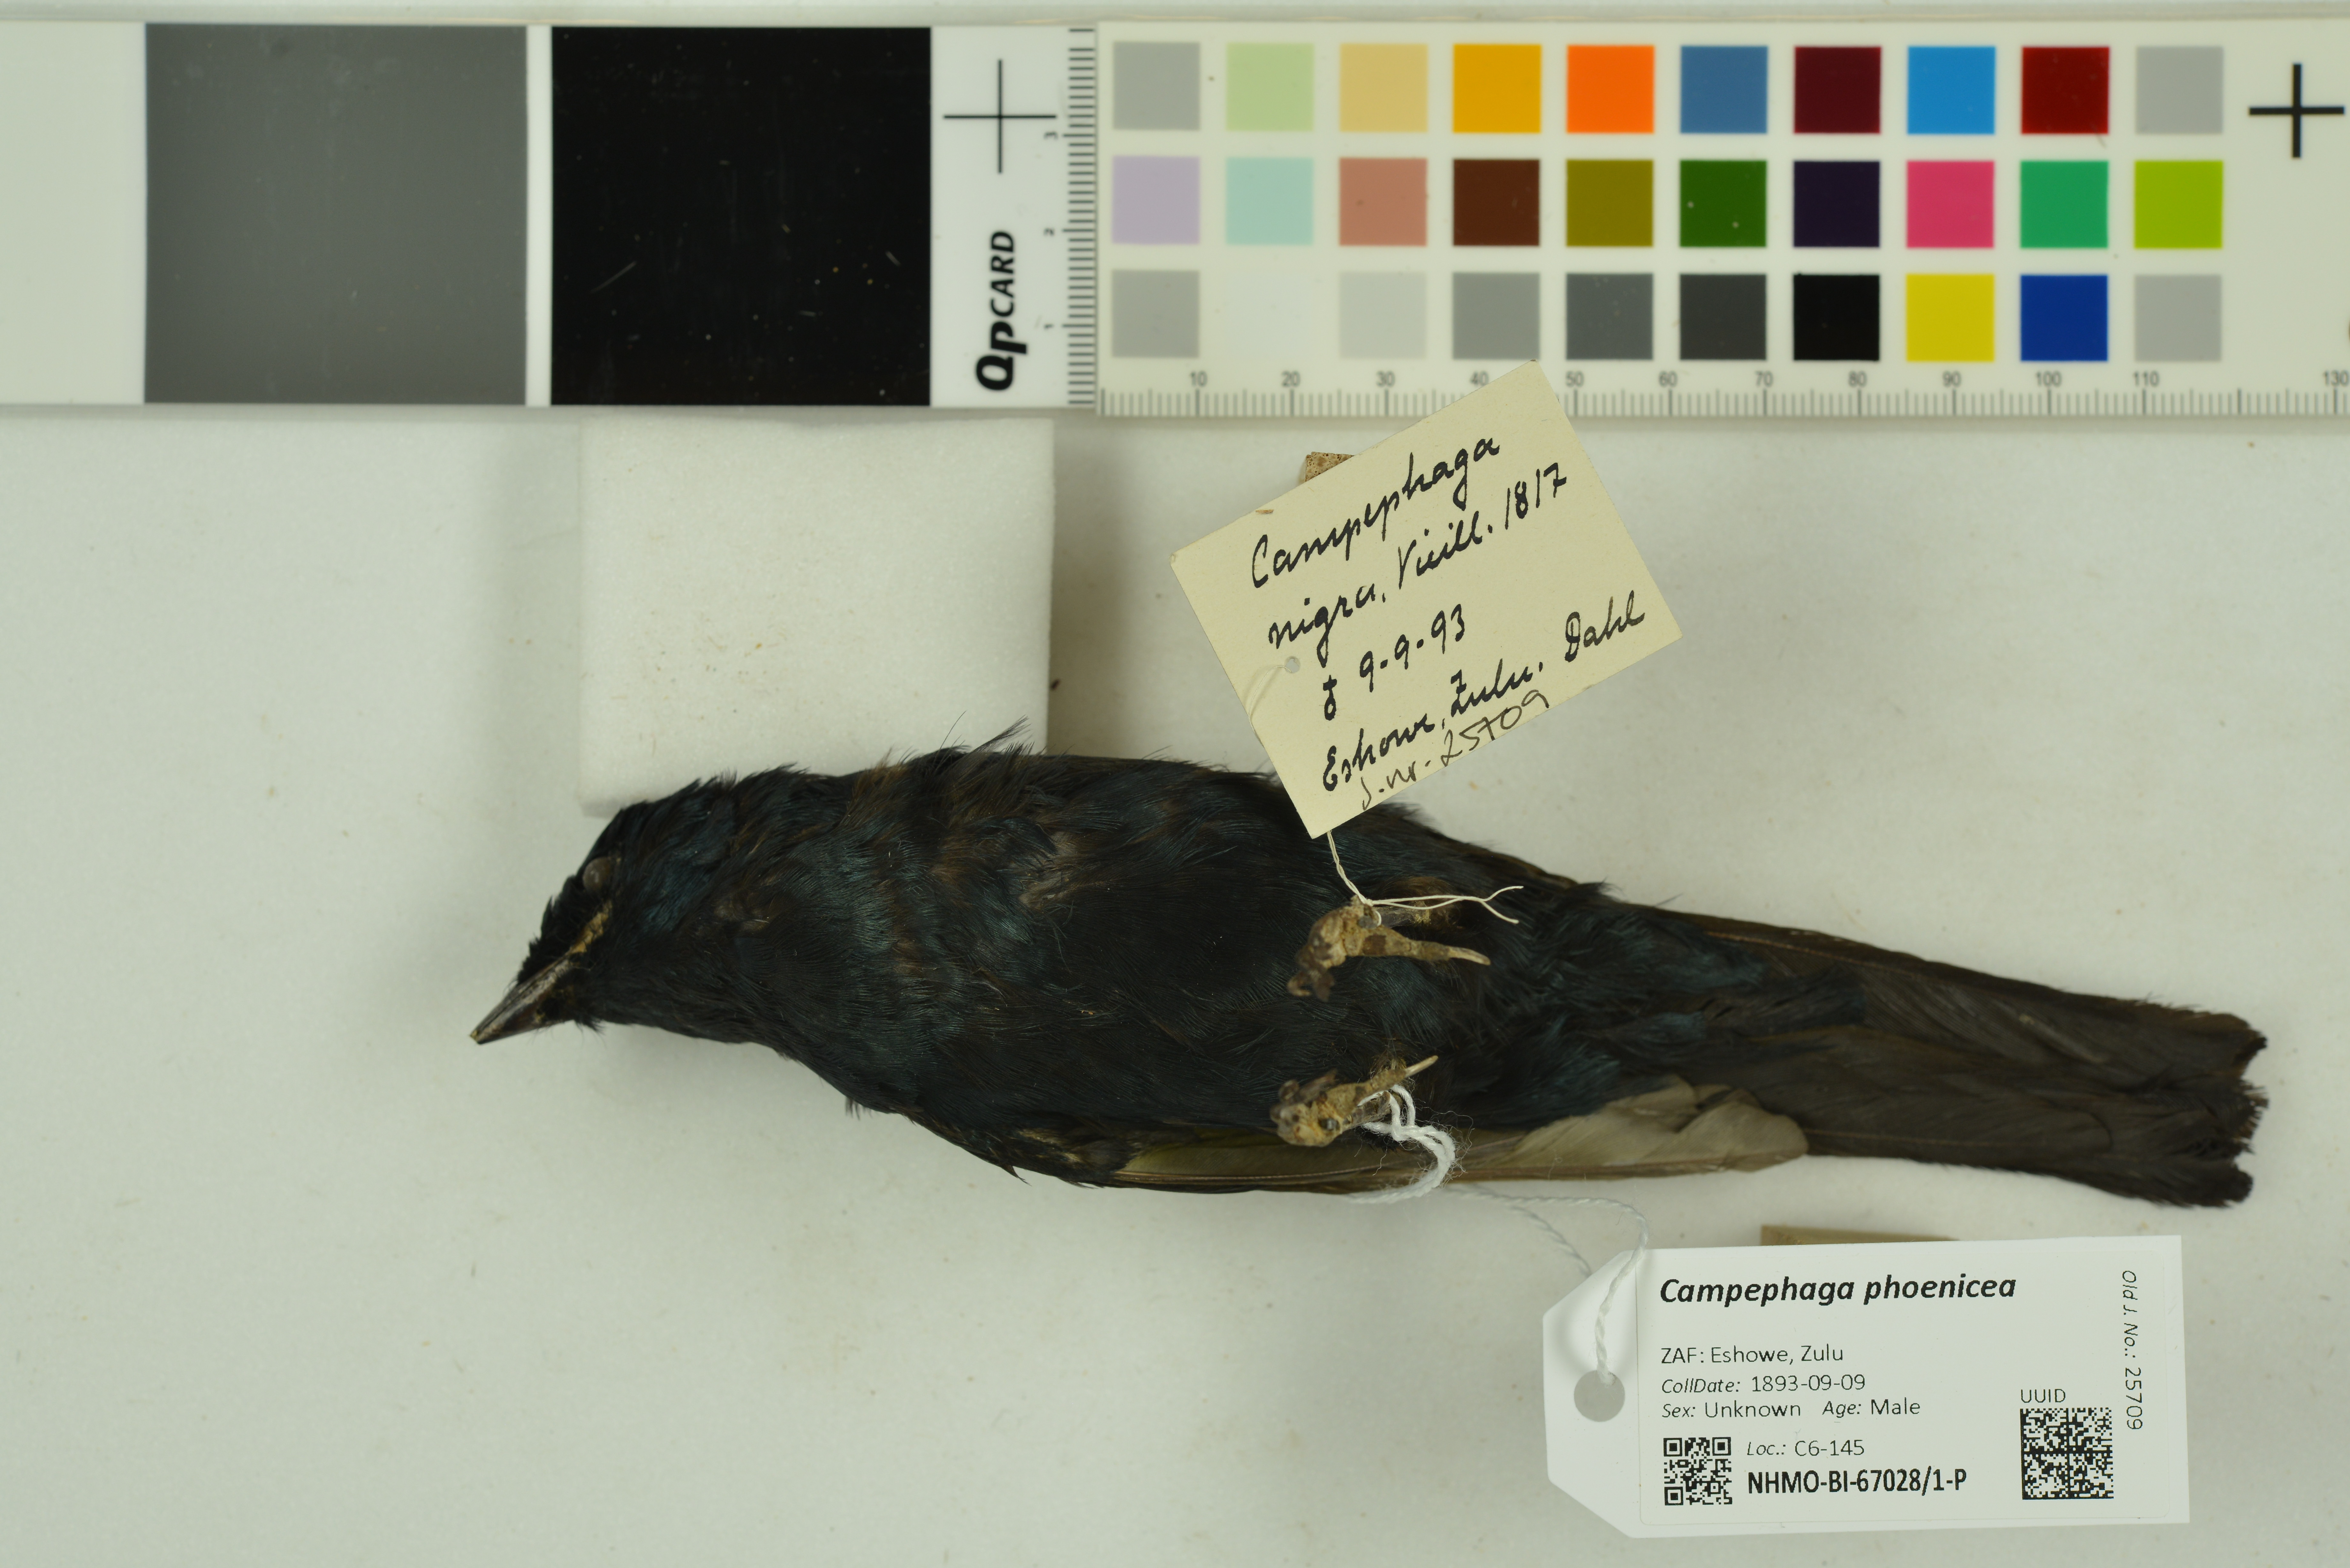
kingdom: Animalia
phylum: Chordata
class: Aves
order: Passeriformes
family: Campephagidae
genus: Campephaga
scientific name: Campephaga phoenicea
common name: Red-shouldered cuckooshrike
